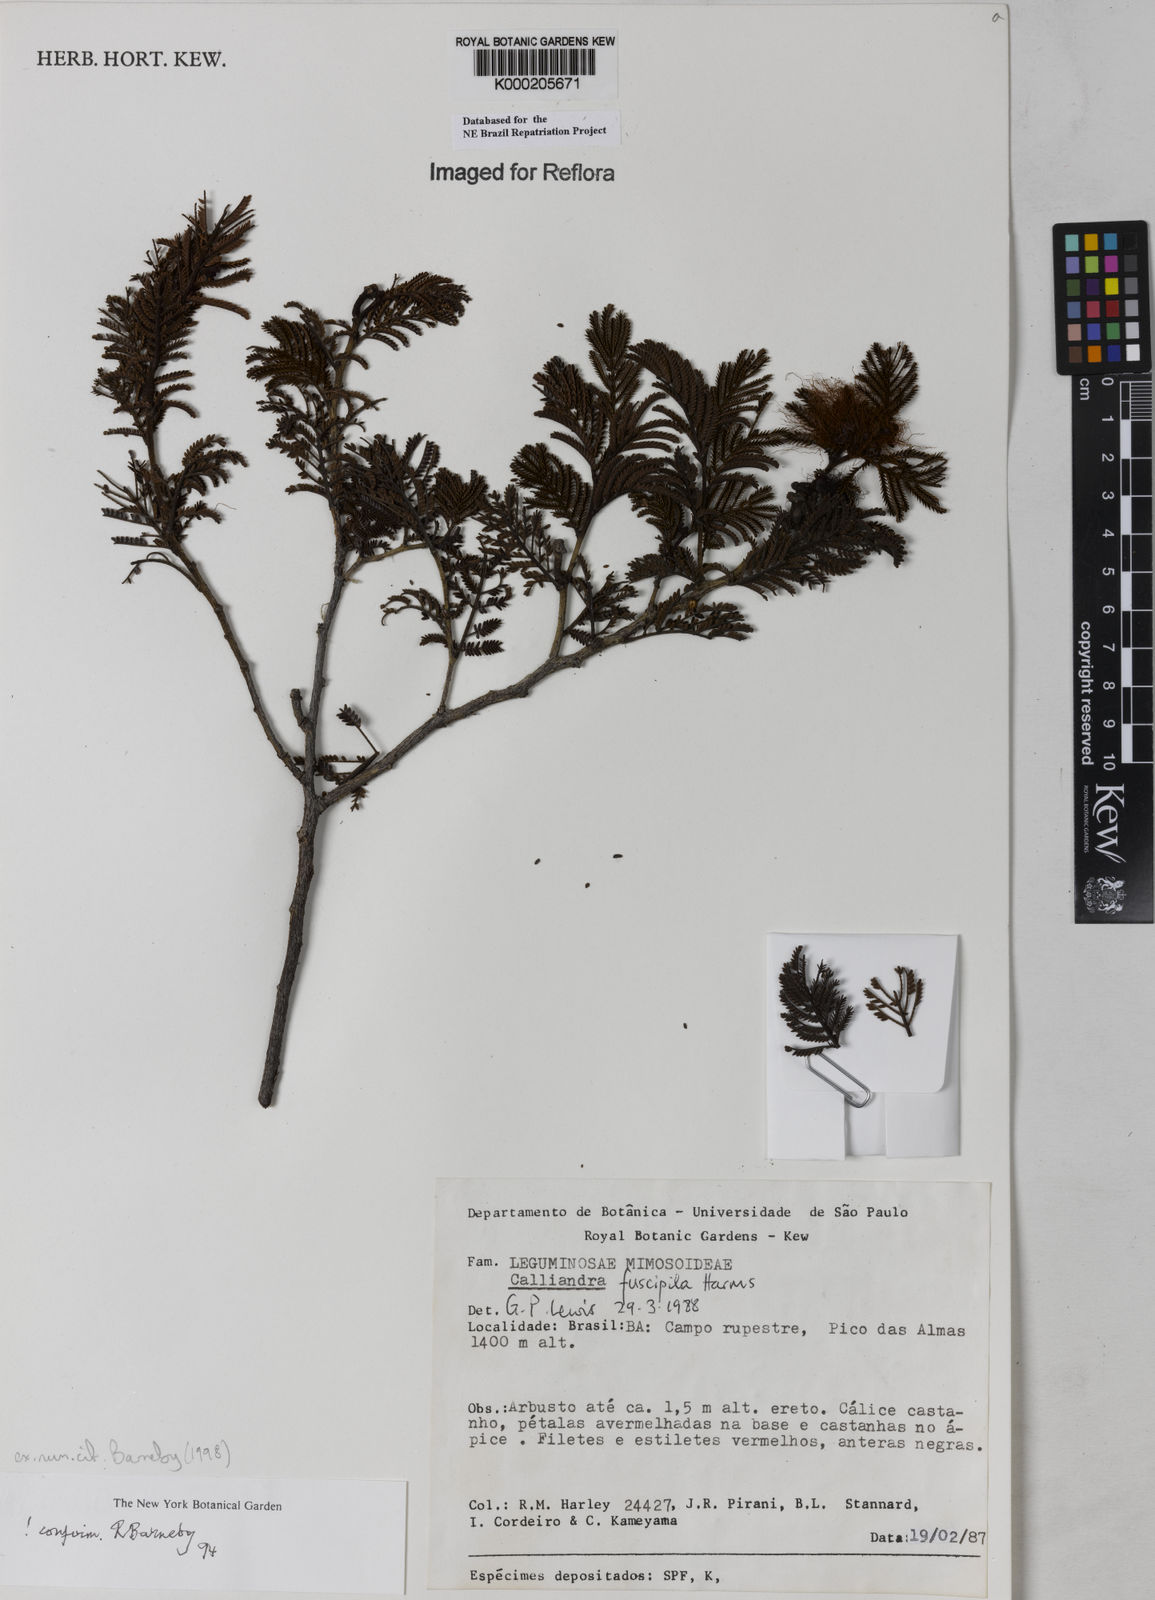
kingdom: Plantae
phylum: Tracheophyta
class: Magnoliopsida
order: Fabales
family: Fabaceae
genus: Calliandra
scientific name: Calliandra fuscipila
